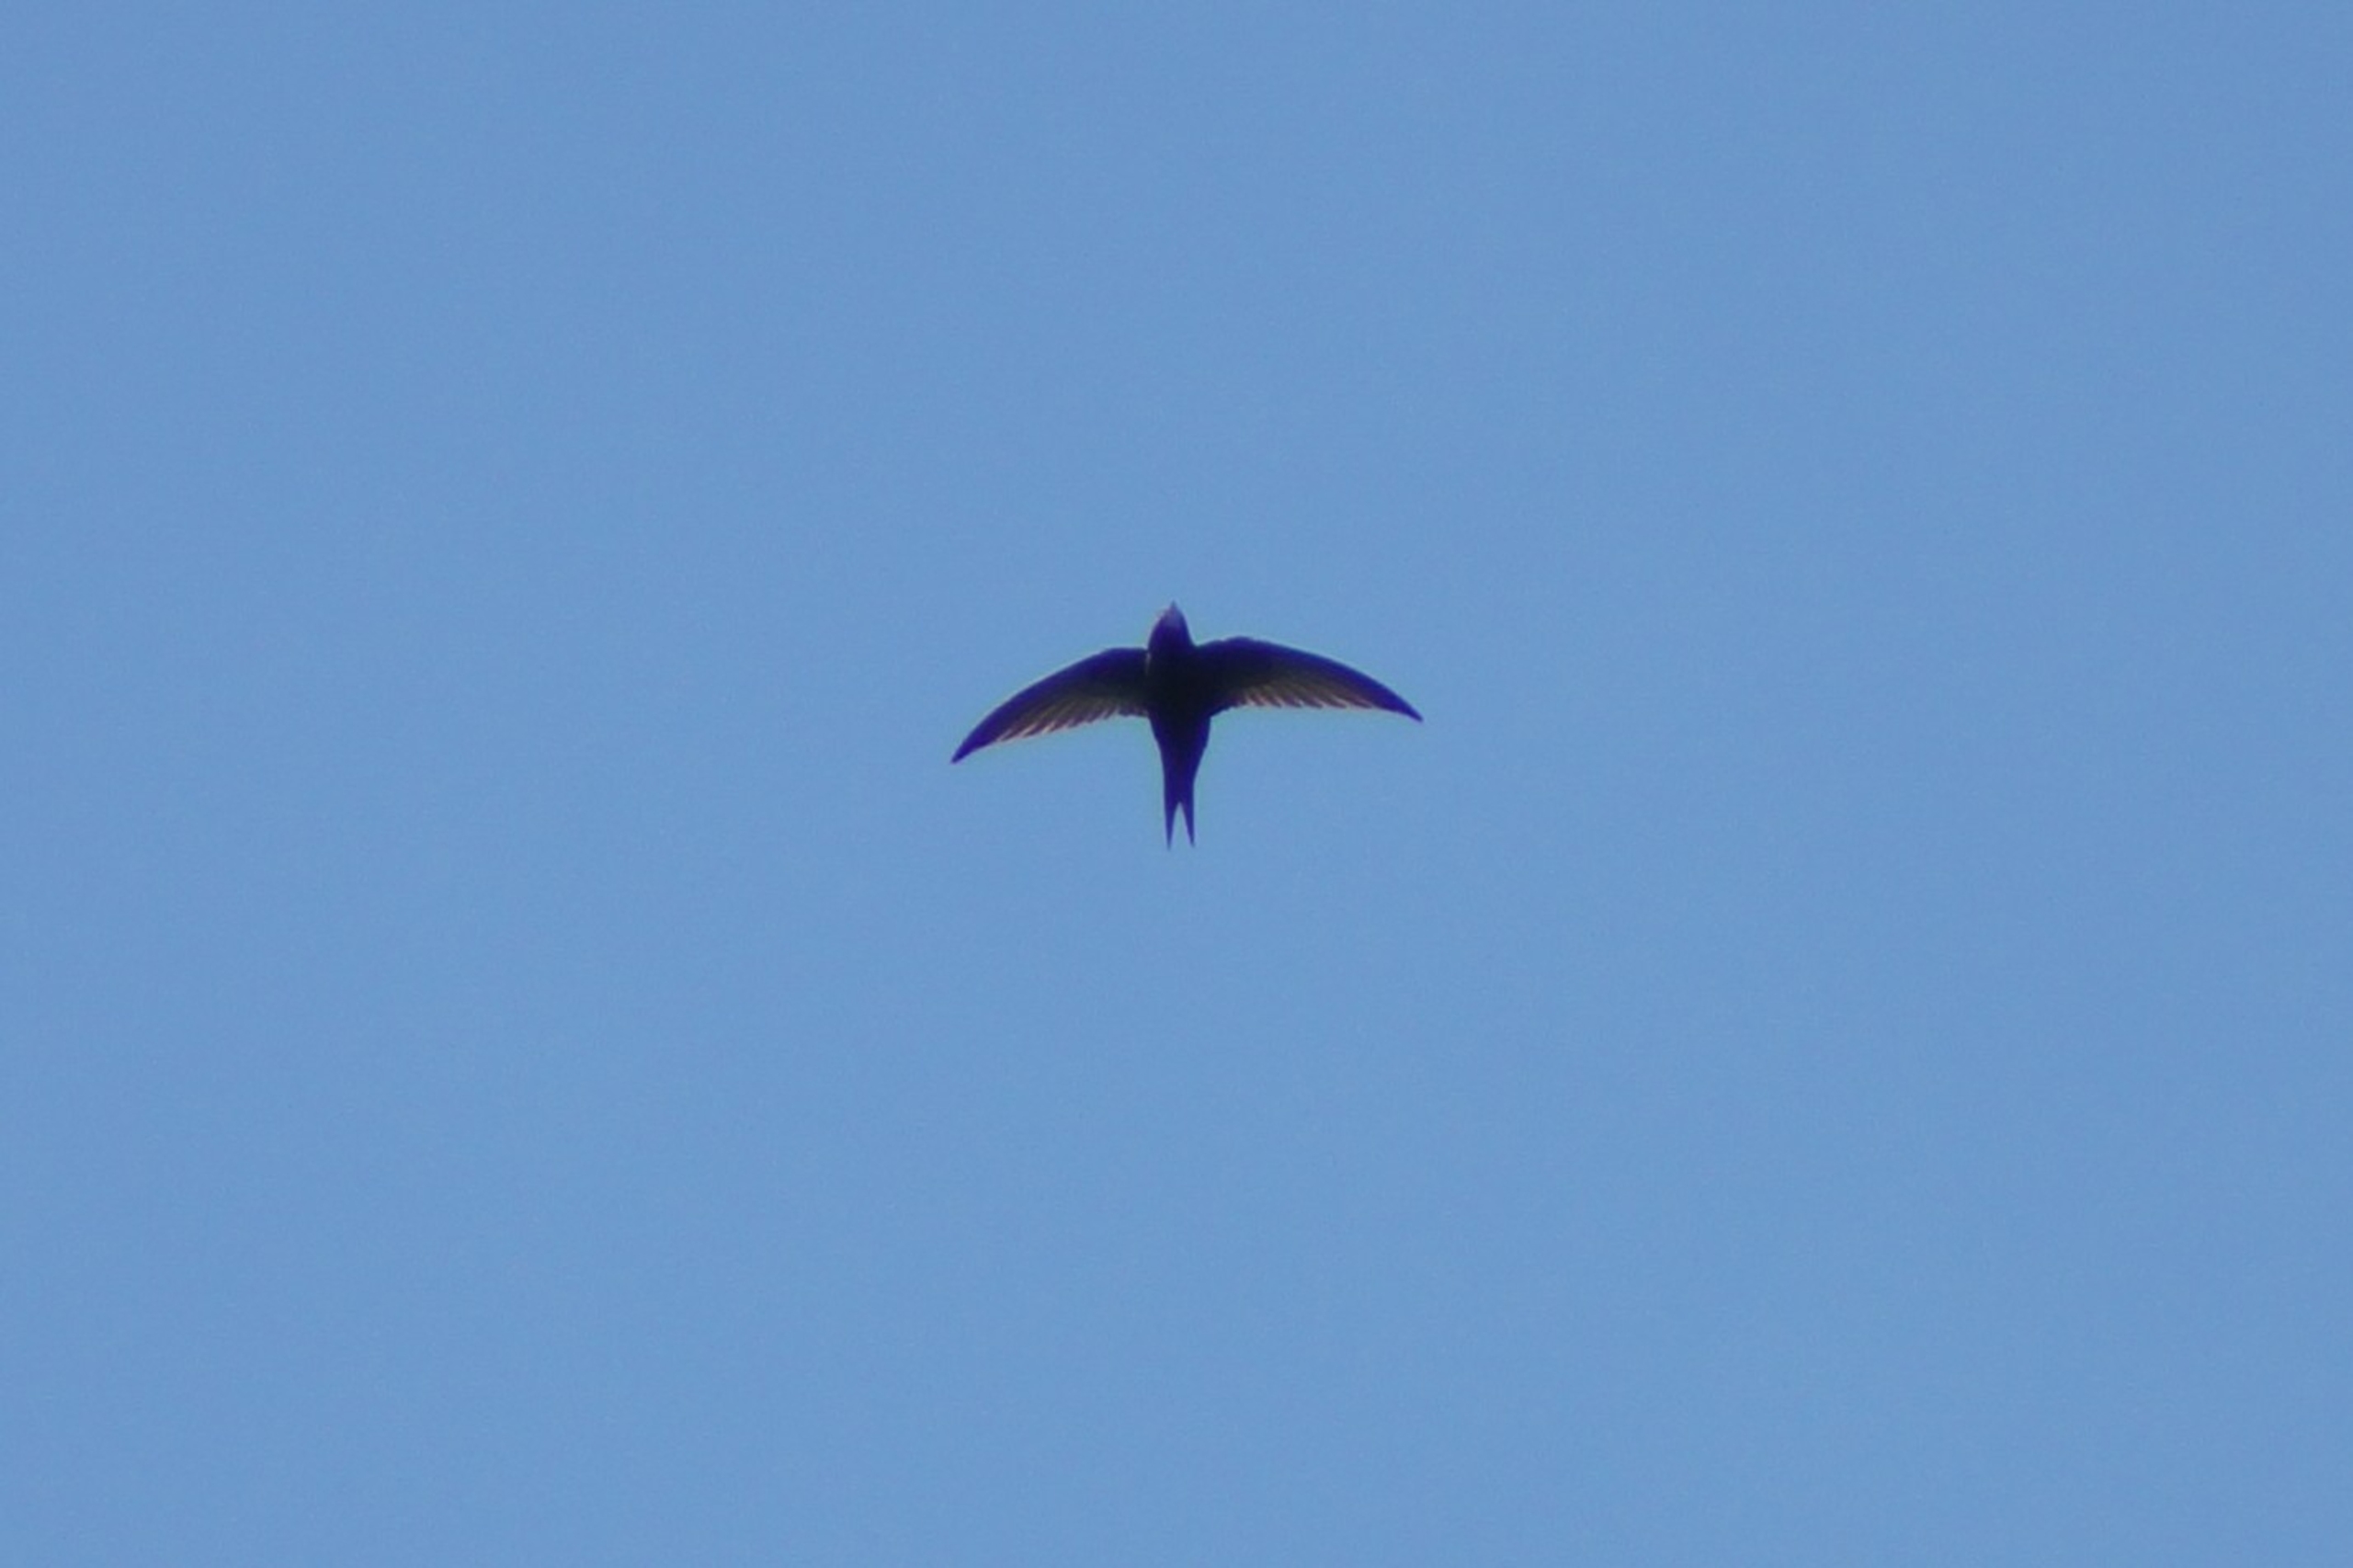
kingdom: Animalia
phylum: Chordata
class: Aves
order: Apodiformes
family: Apodidae
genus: Apus
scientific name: Apus apus
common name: Mursejler
